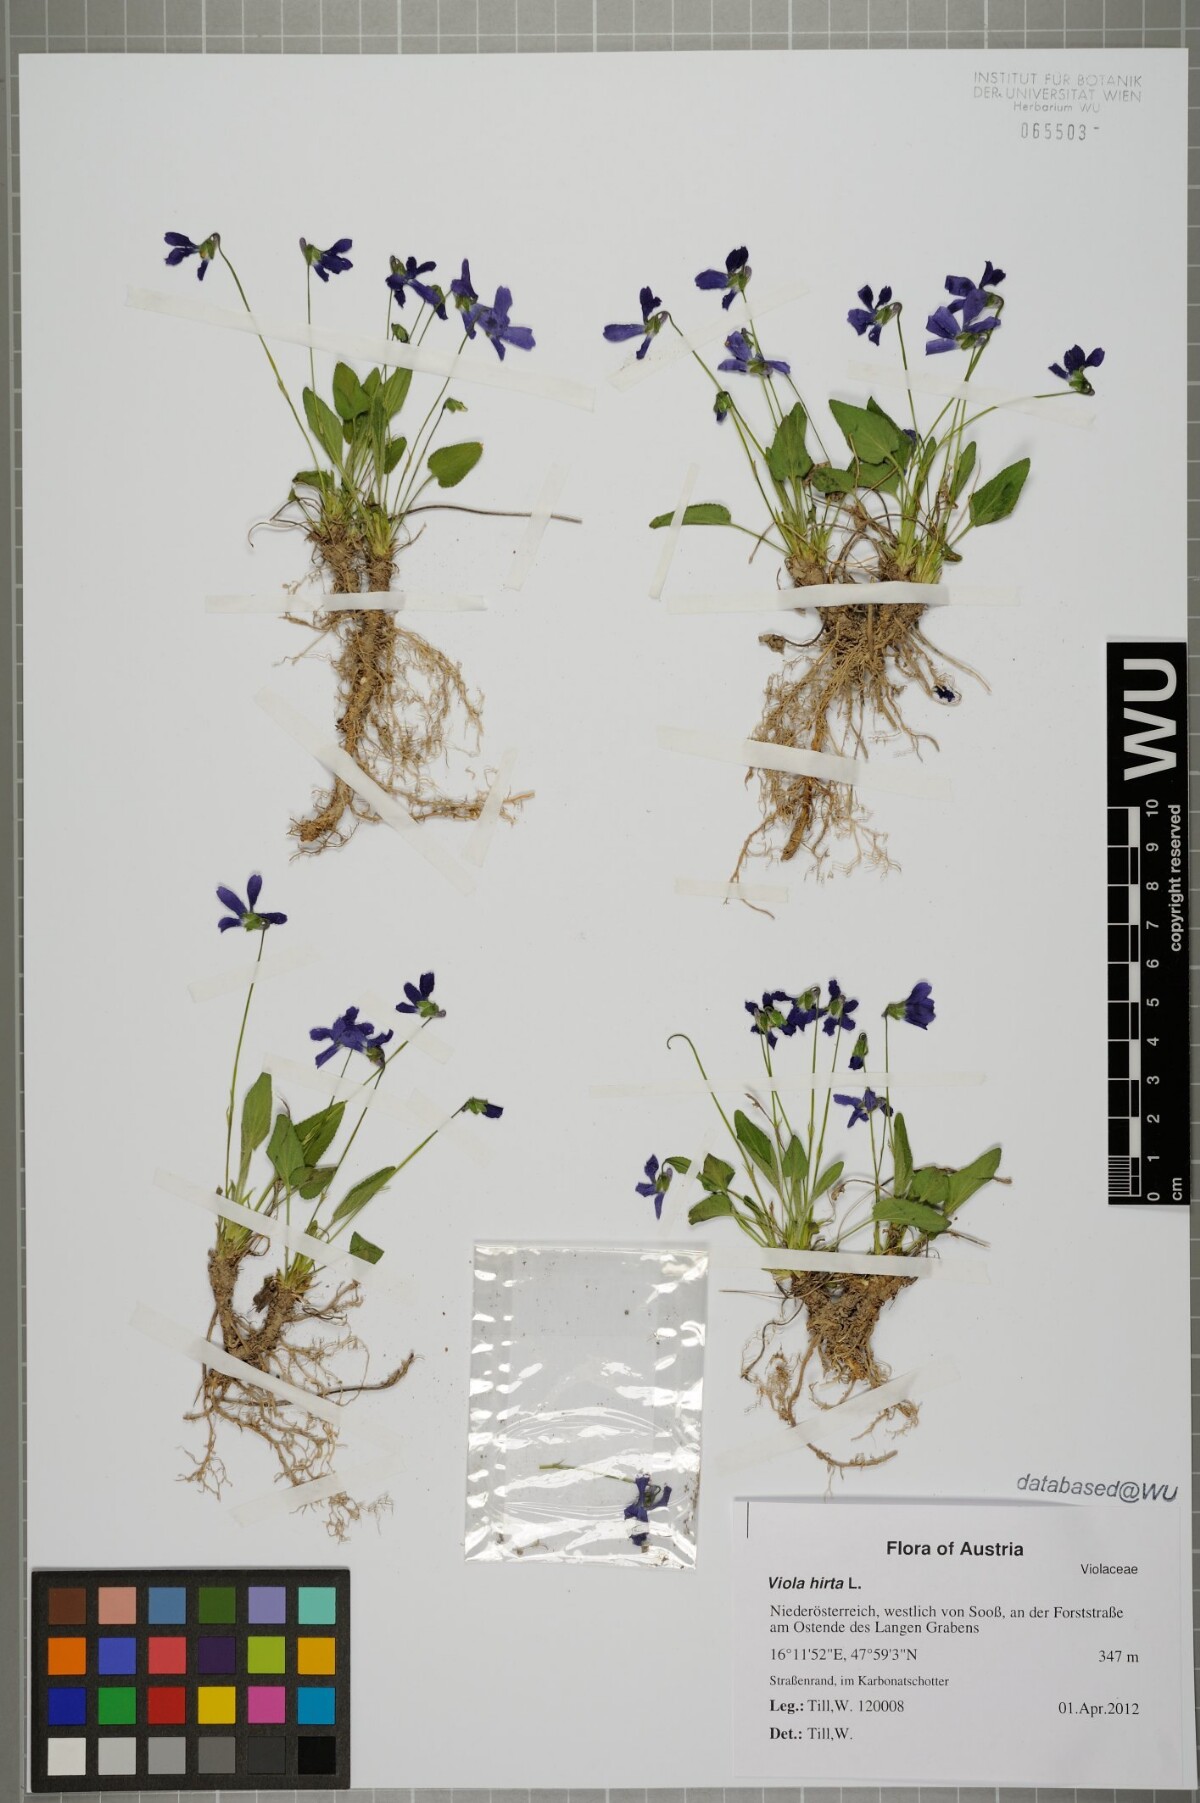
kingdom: Plantae
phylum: Tracheophyta
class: Magnoliopsida
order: Malpighiales
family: Violaceae
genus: Viola
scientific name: Viola hirta
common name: Hairy violet
